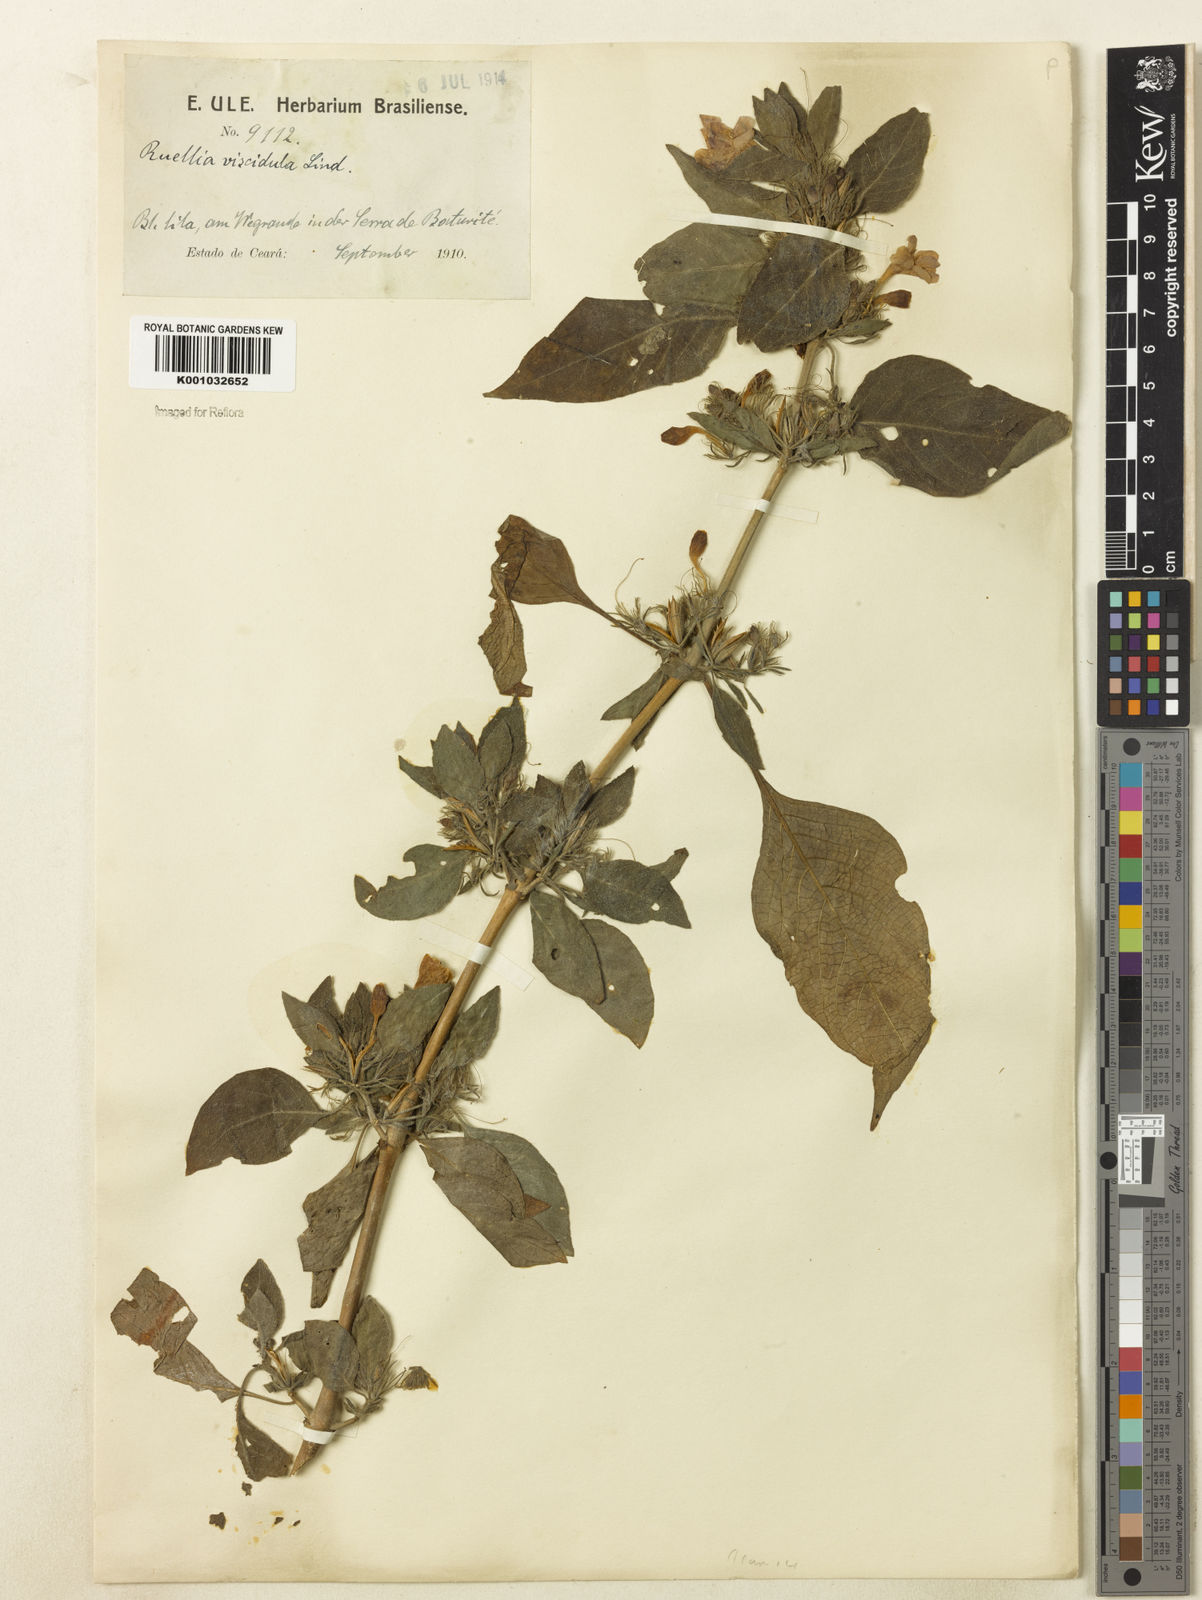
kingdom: Plantae
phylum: Tracheophyta
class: Magnoliopsida
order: Lamiales
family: Acanthaceae
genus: Ruellia
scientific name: Ruellia
